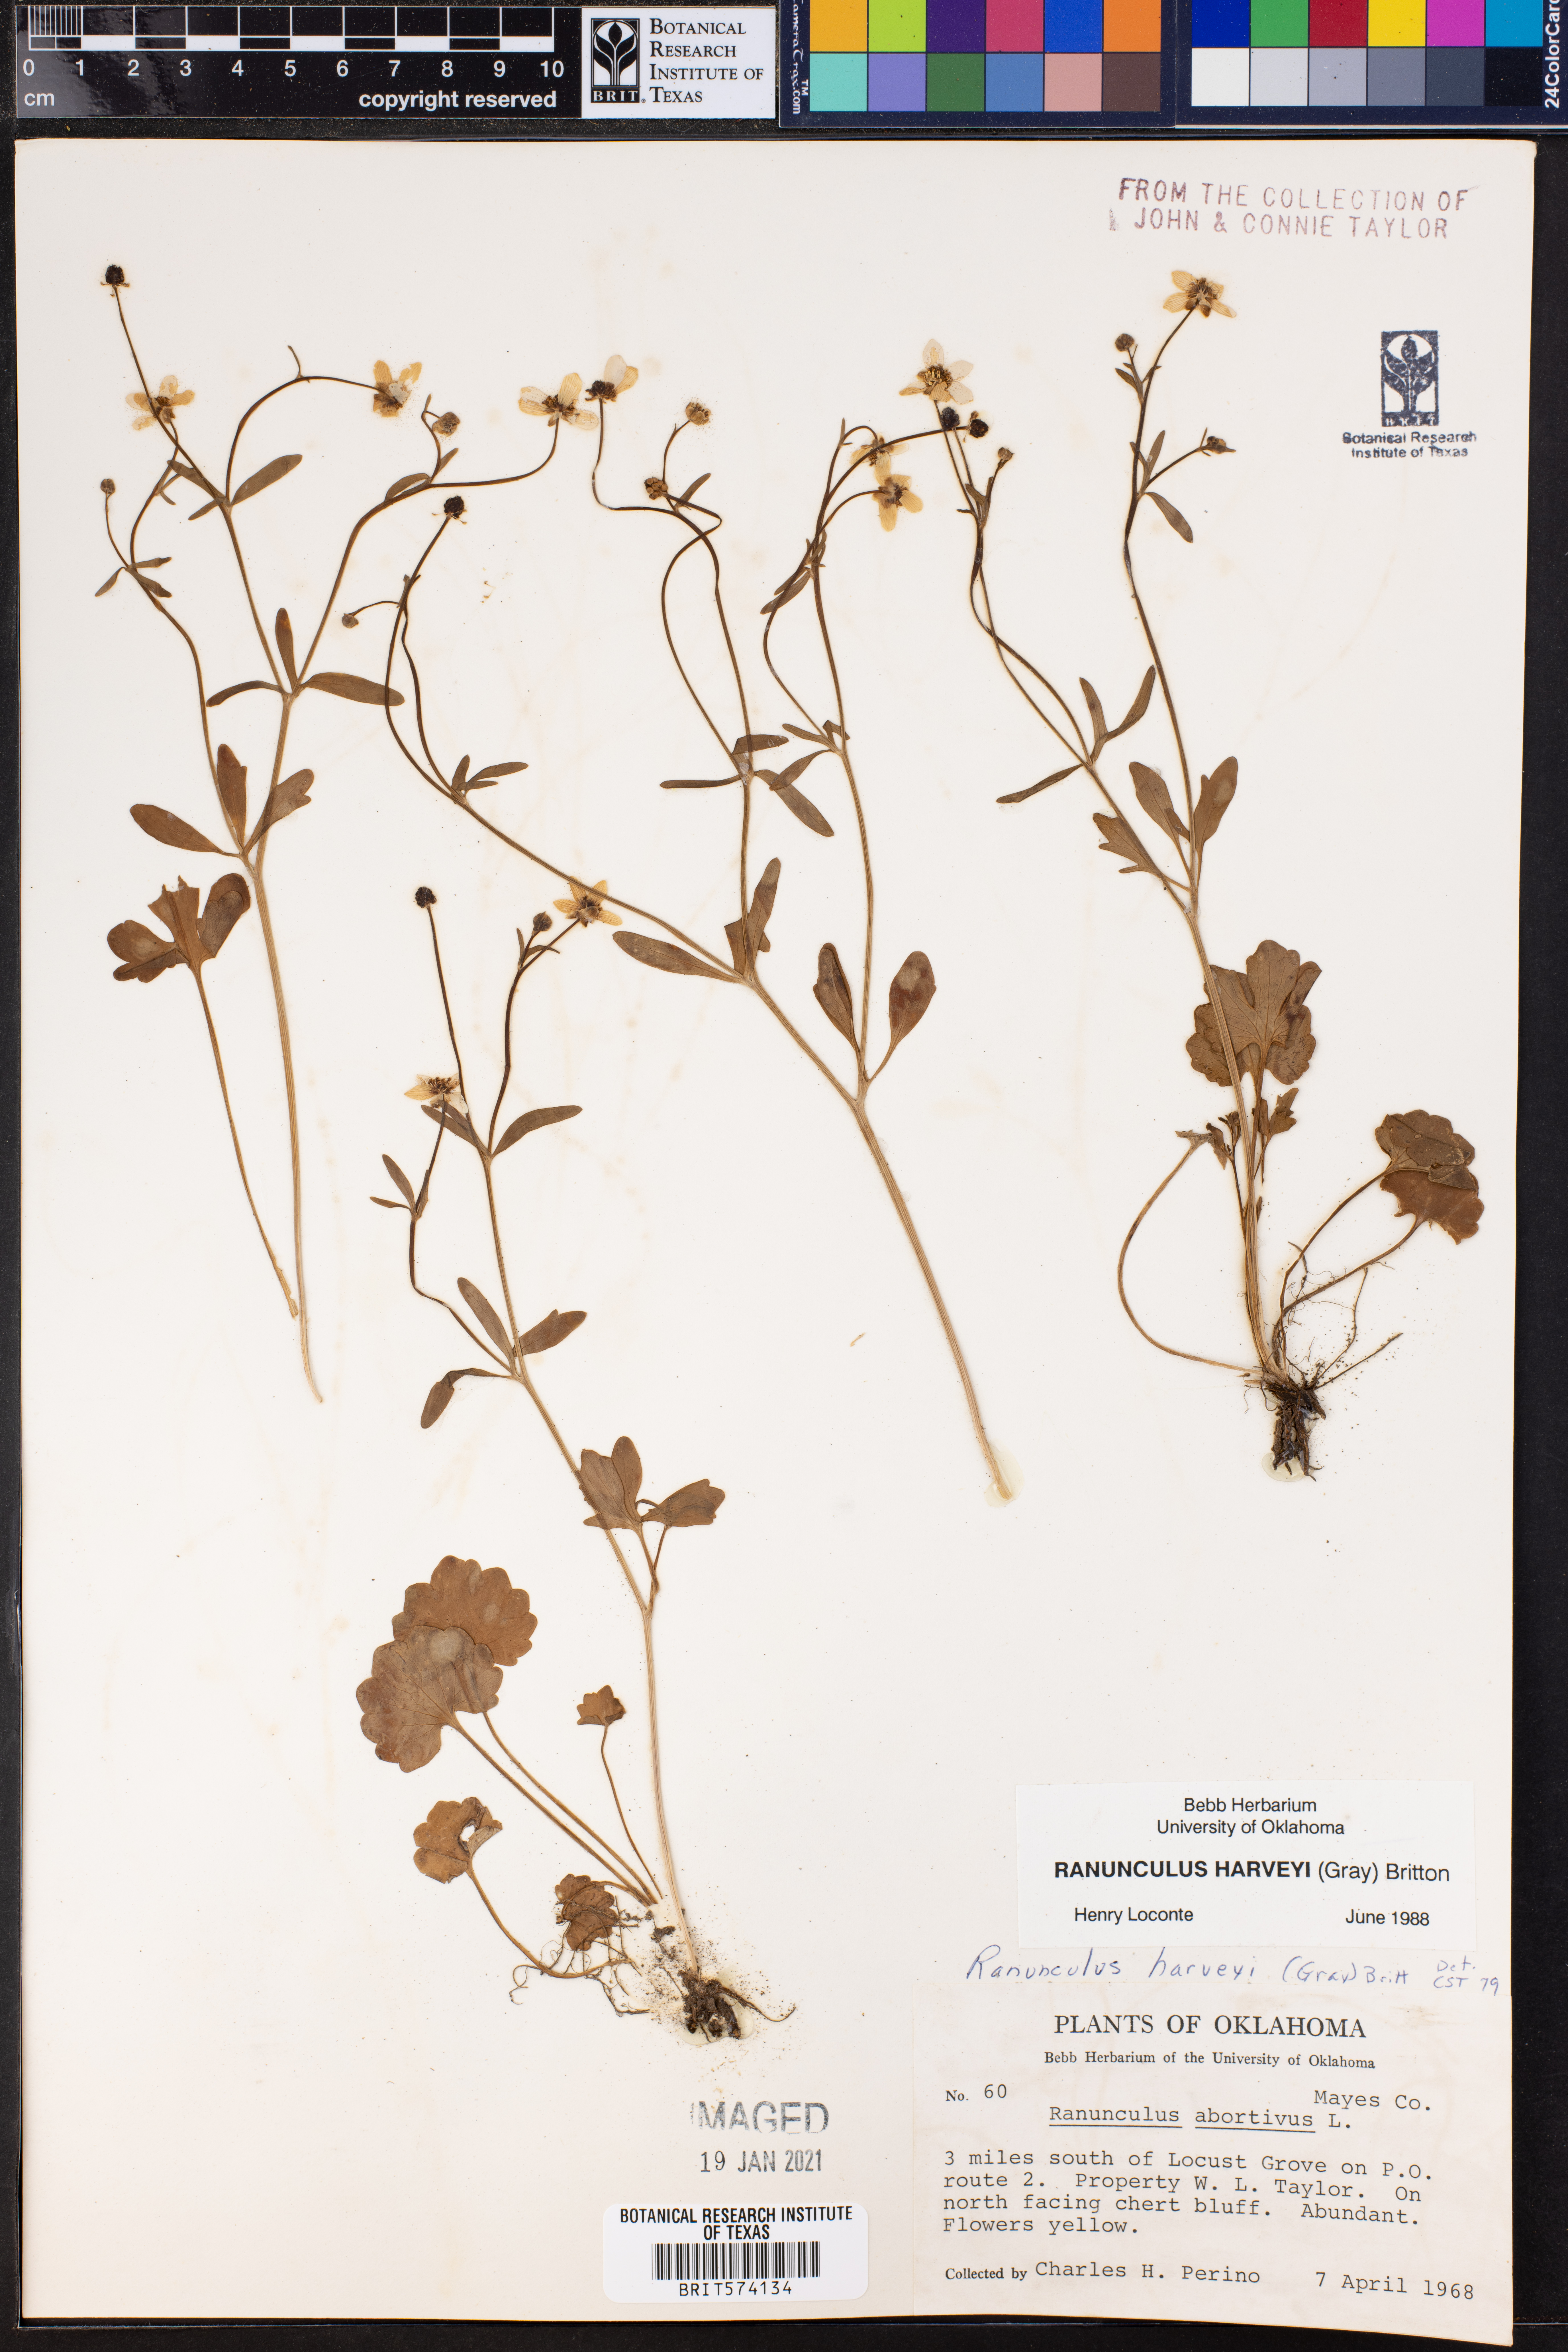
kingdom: Plantae
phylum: Tracheophyta
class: Magnoliopsida
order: Ranunculales
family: Ranunculaceae
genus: Ranunculus
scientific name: Ranunculus harveyi
